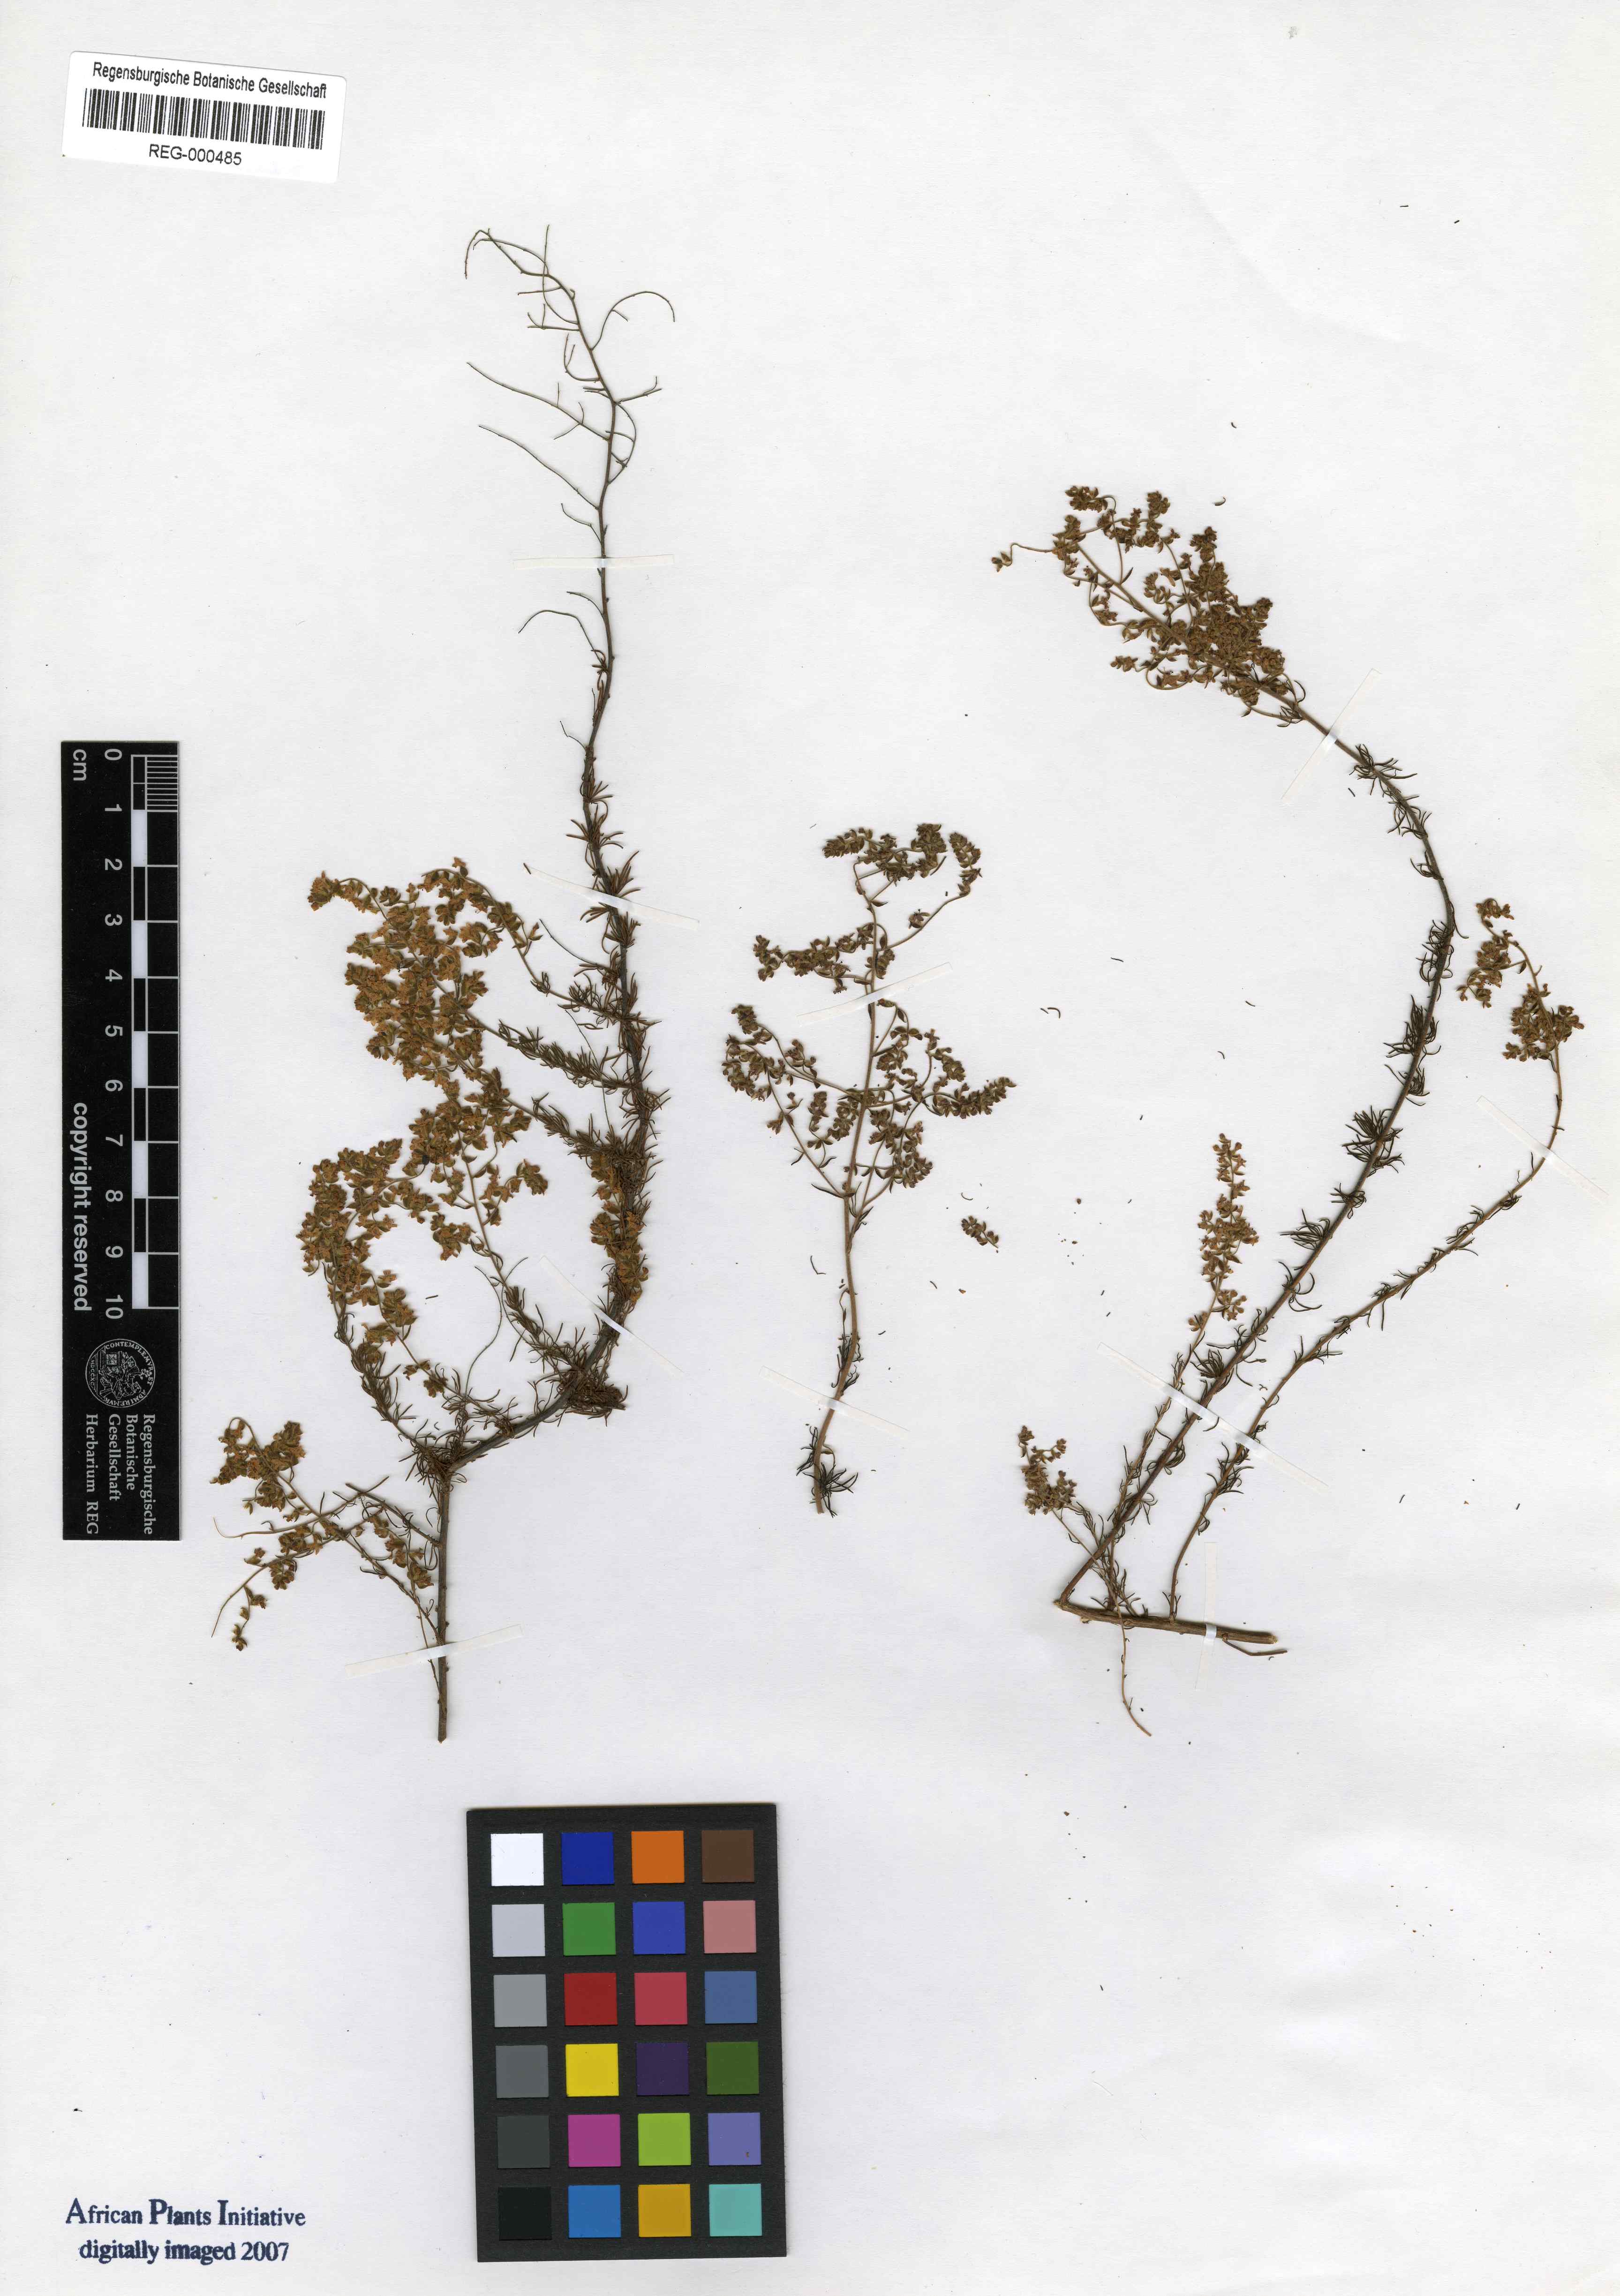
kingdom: Plantae
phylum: Tracheophyta
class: Magnoliopsida
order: Lamiales
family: Scrophulariaceae
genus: Globulariopsis
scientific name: Globulariopsis tephrodes
